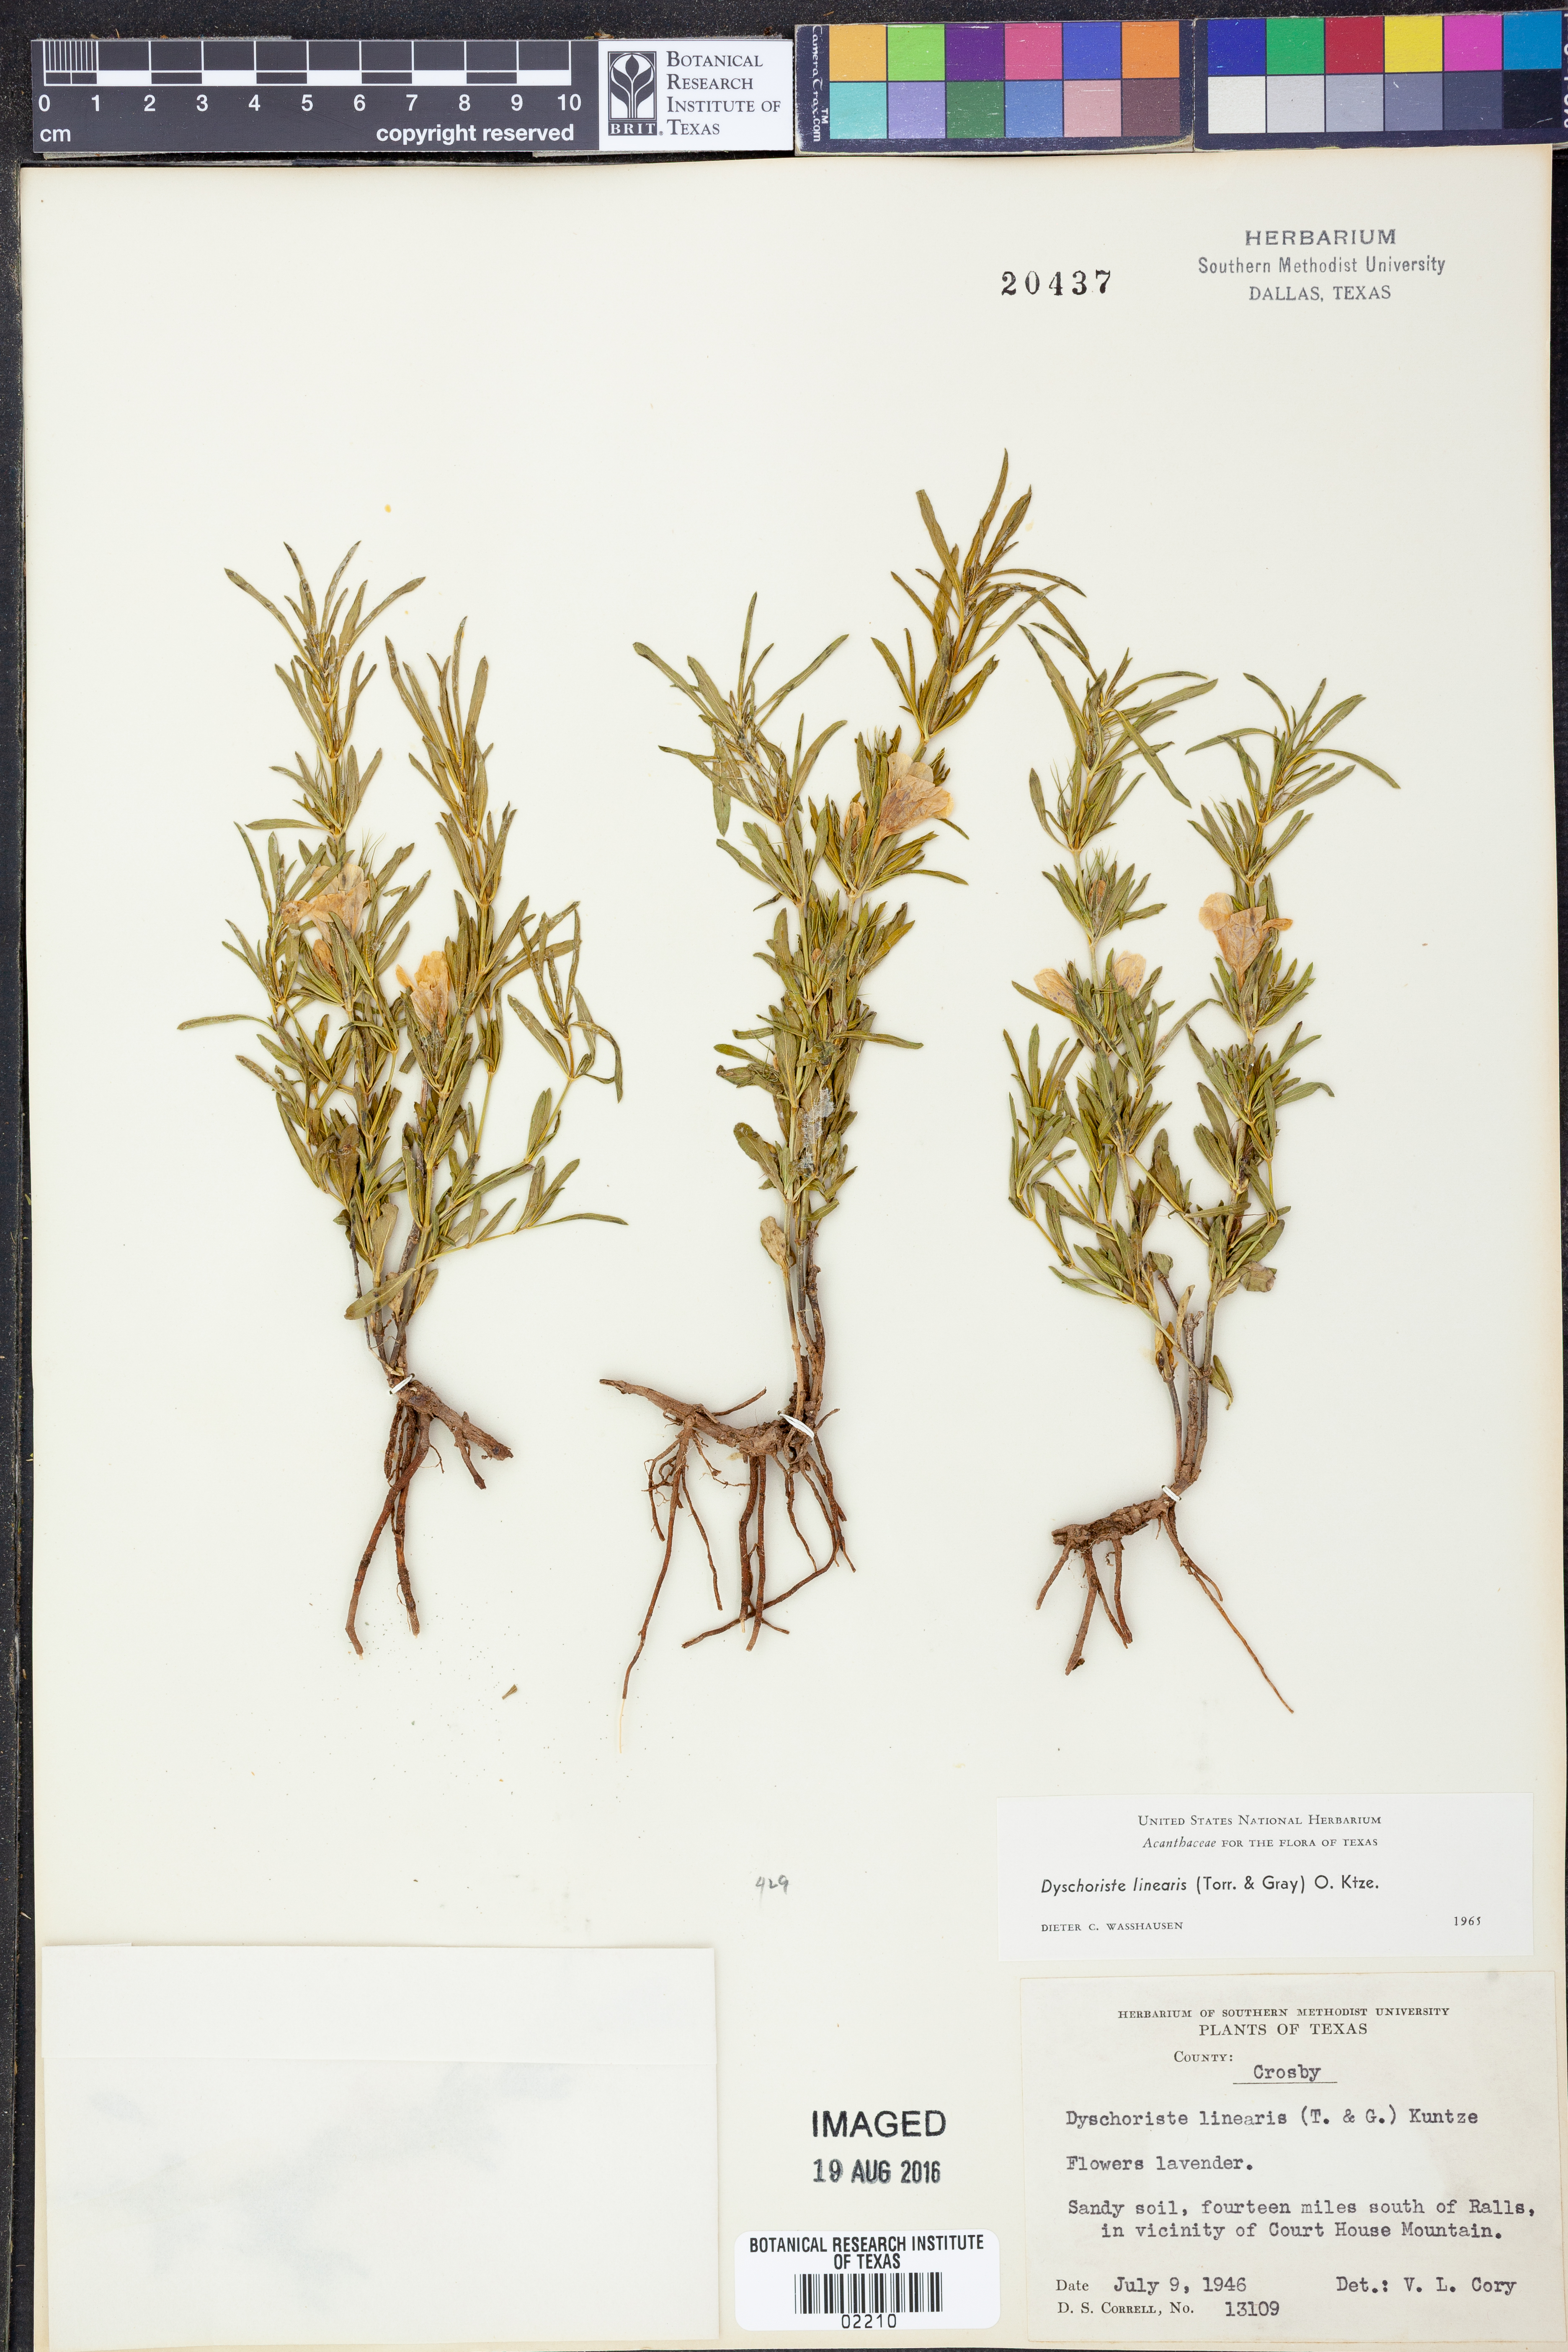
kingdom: Plantae
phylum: Tracheophyta
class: Magnoliopsida
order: Lamiales
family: Acanthaceae
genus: Dyschoriste
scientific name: Dyschoriste linearis
